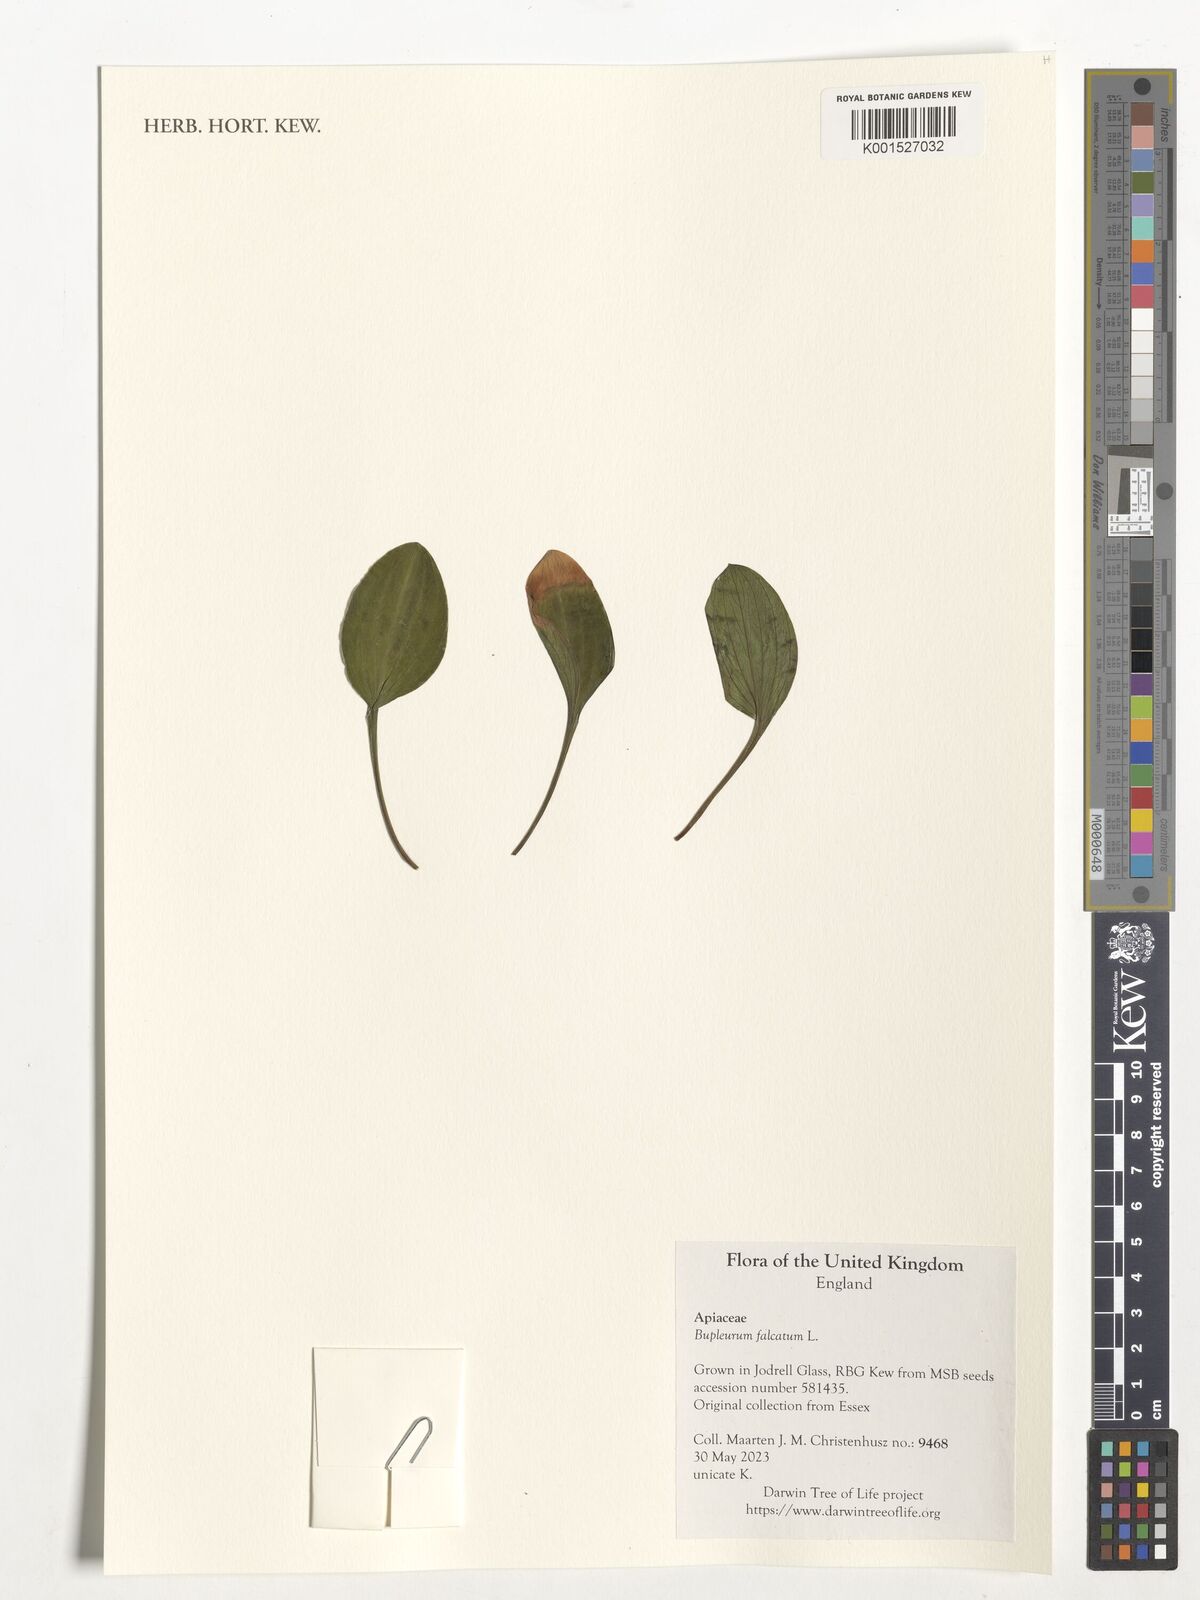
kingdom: Plantae
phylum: Tracheophyta
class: Magnoliopsida
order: Apiales
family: Apiaceae
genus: Bupleurum
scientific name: Bupleurum falcatum
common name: Sickle-leaved hare's-ear
